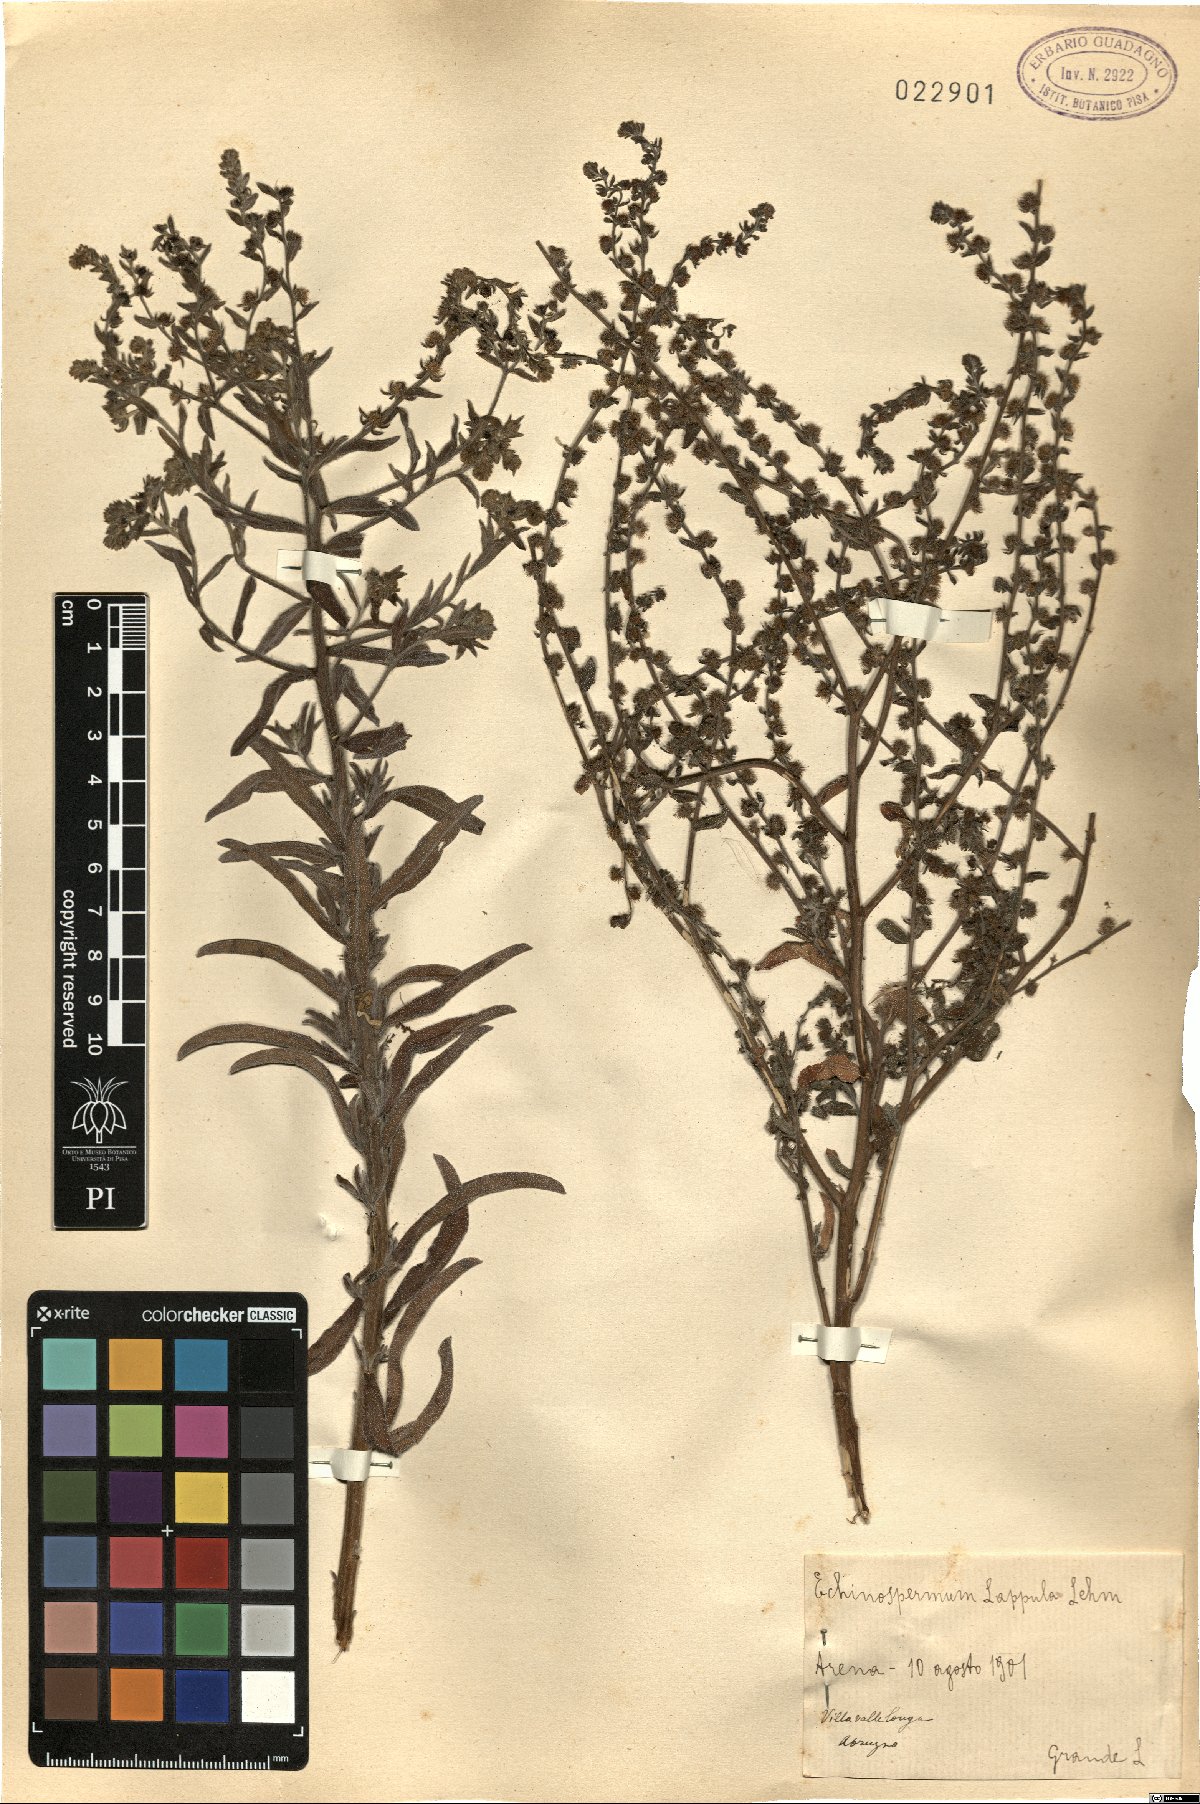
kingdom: Plantae
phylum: Tracheophyta
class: Magnoliopsida
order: Boraginales
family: Boraginaceae
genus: Lappula
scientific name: Lappula squarrosa
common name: European stickseed
